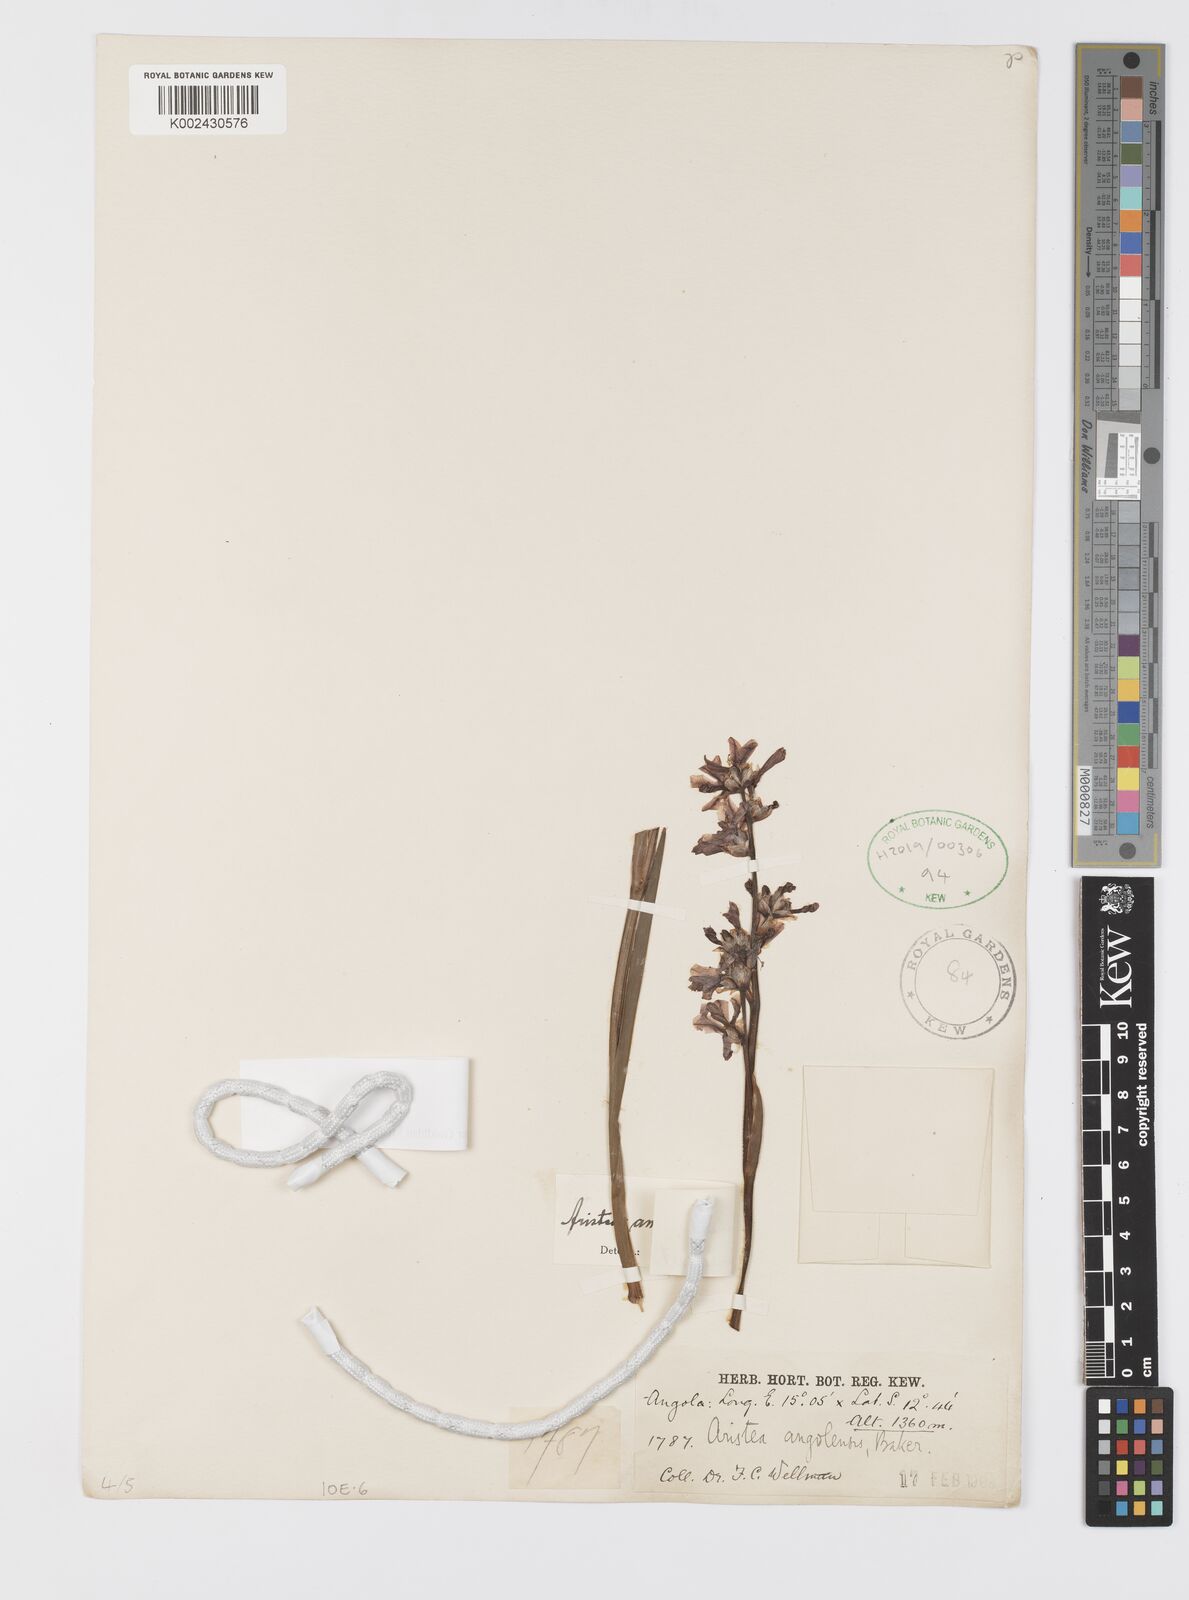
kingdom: Plantae
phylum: Tracheophyta
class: Liliopsida
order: Asparagales
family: Iridaceae
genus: Aristea
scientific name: Aristea angolensis
